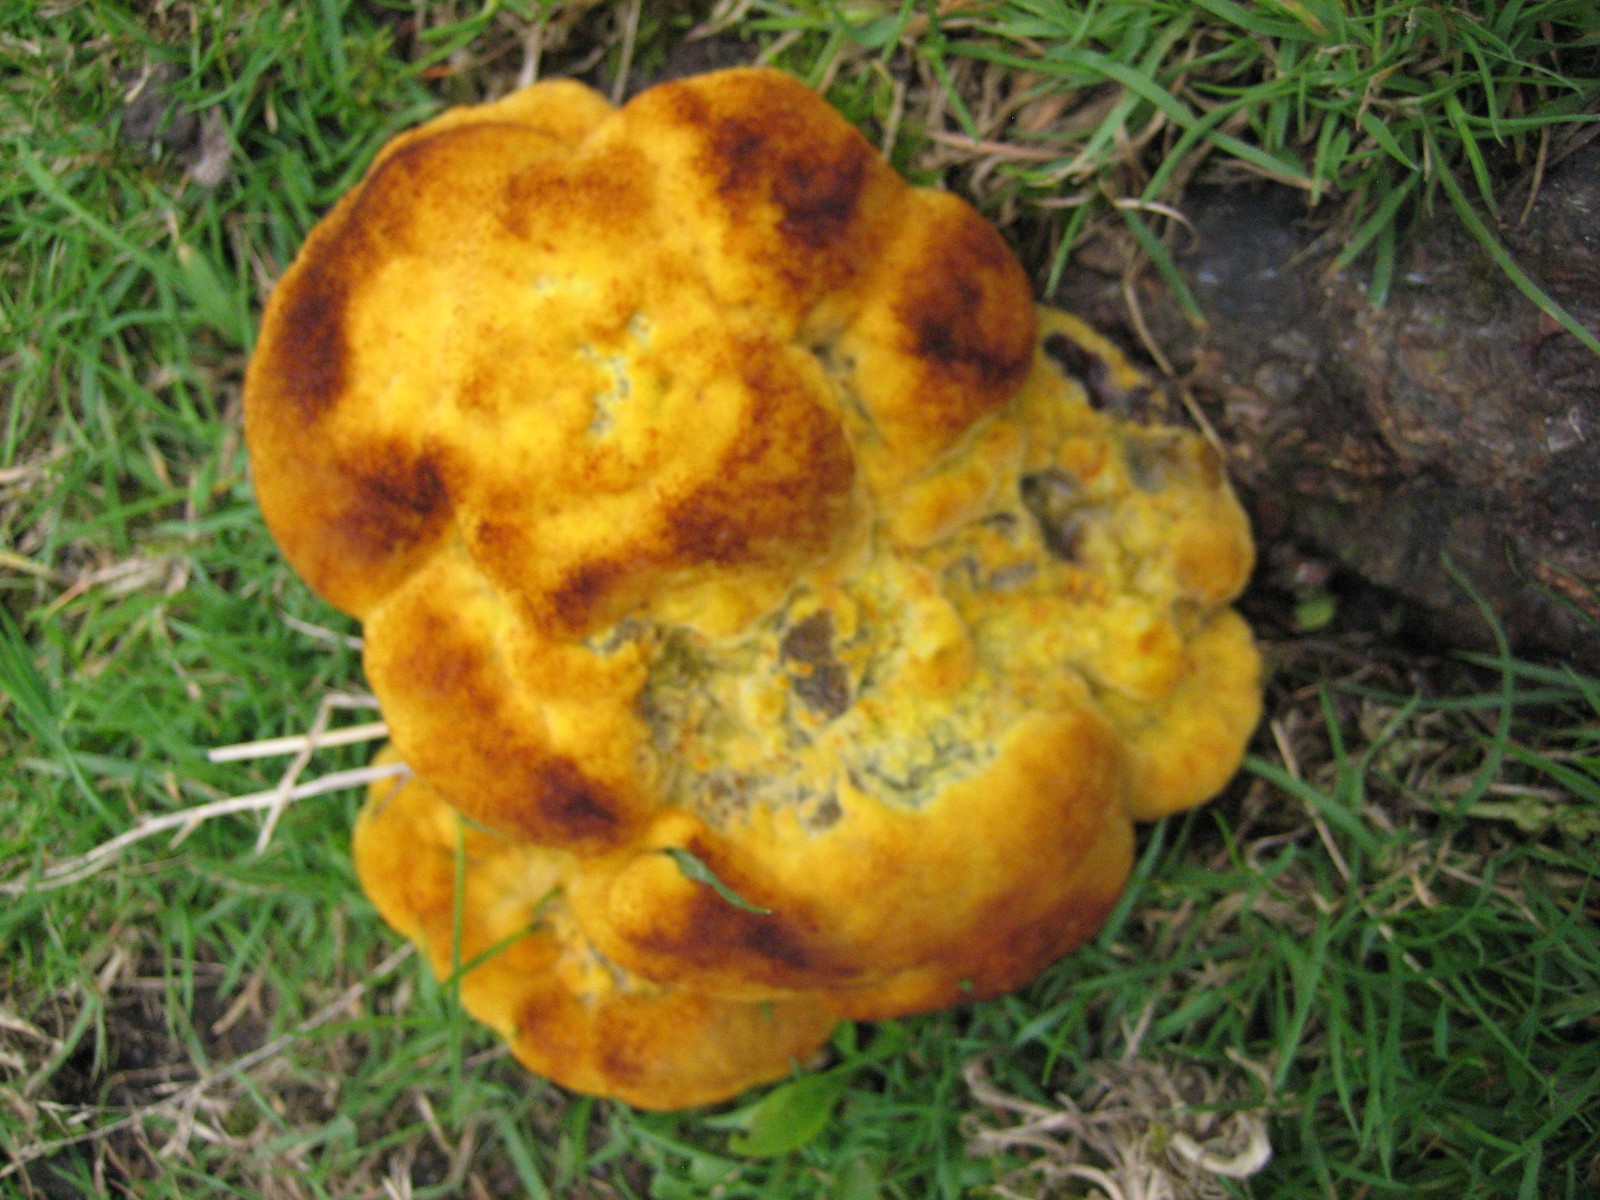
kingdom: Fungi
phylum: Basidiomycota
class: Agaricomycetes
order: Polyporales
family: Laetiporaceae
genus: Phaeolus
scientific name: Phaeolus schweinitzii
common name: brunporesvamp
